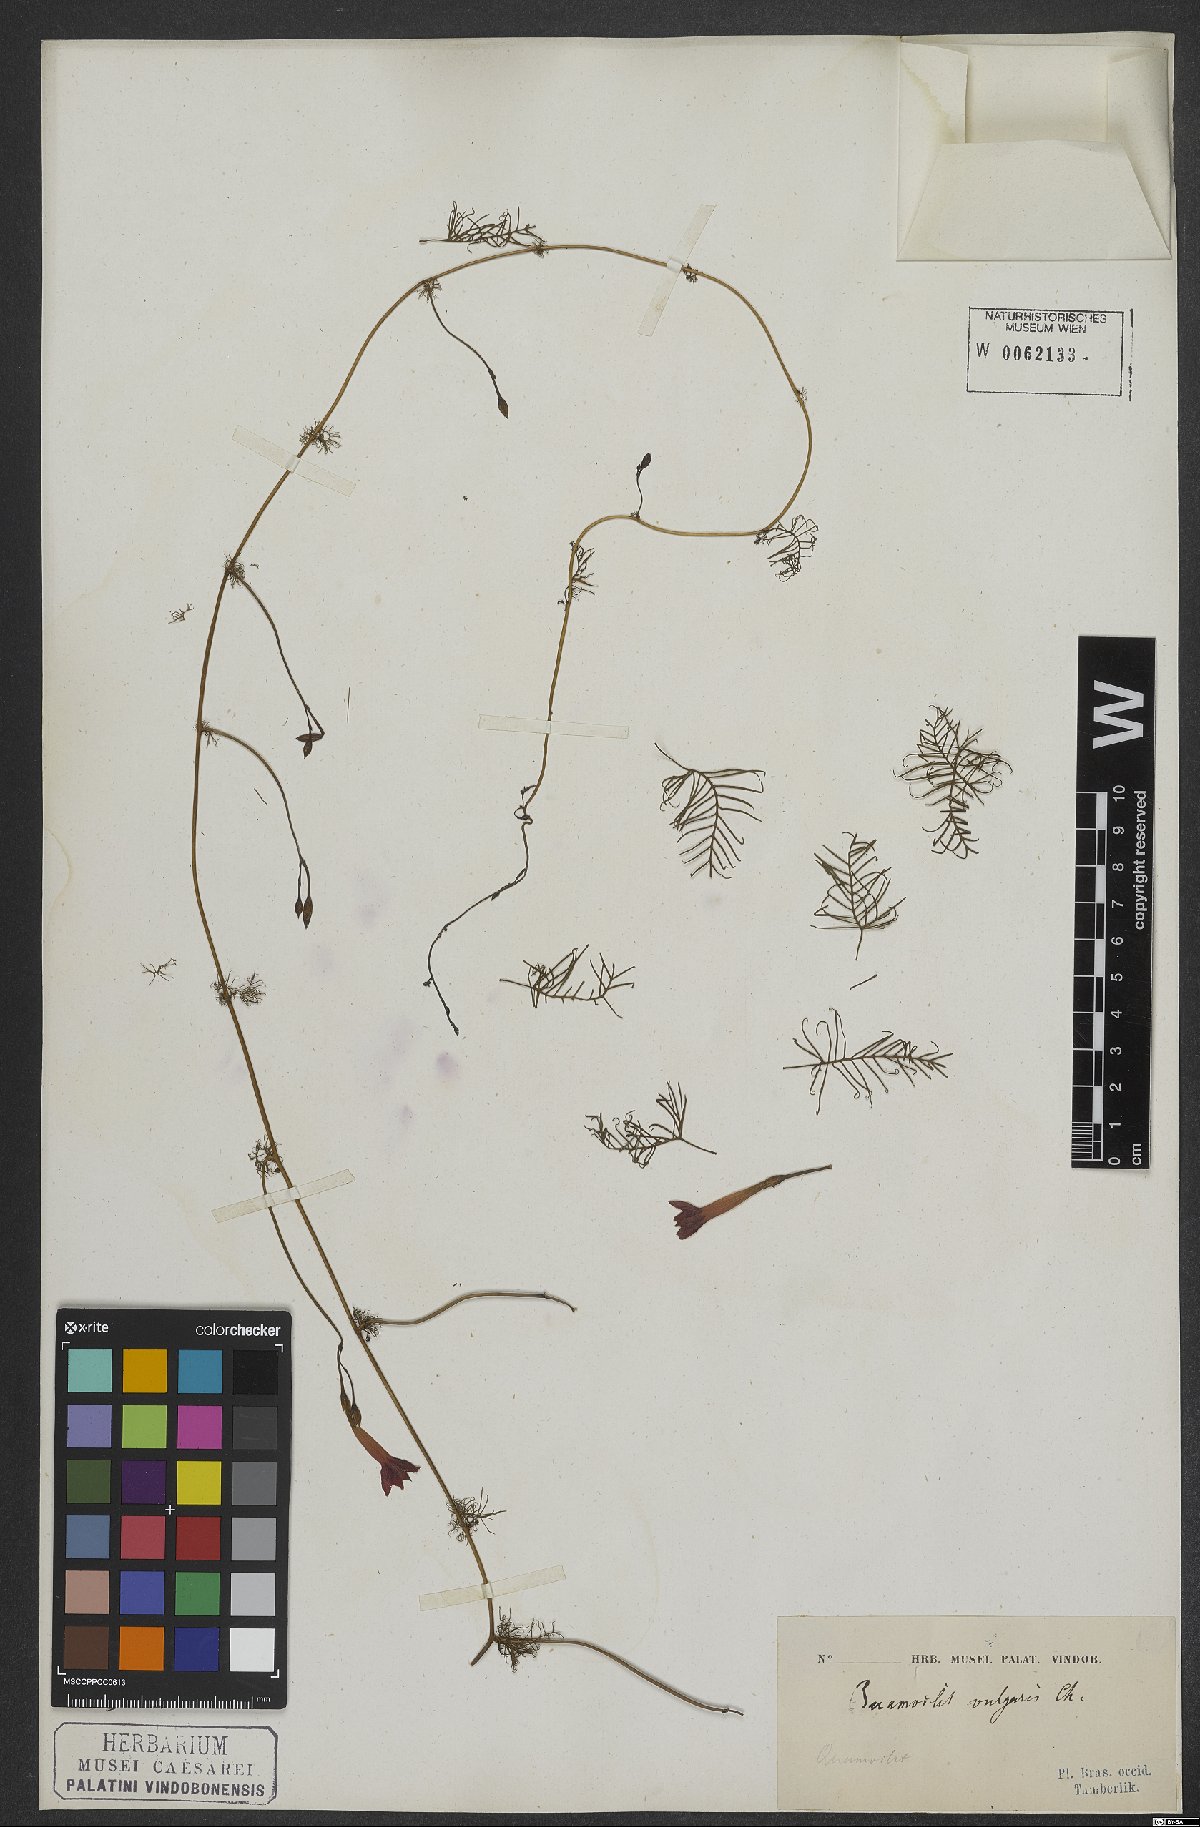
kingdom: Plantae
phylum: Tracheophyta
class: Magnoliopsida
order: Solanales
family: Convolvulaceae
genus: Ipomoea
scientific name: Ipomoea quamoclit
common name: Cypress vine
